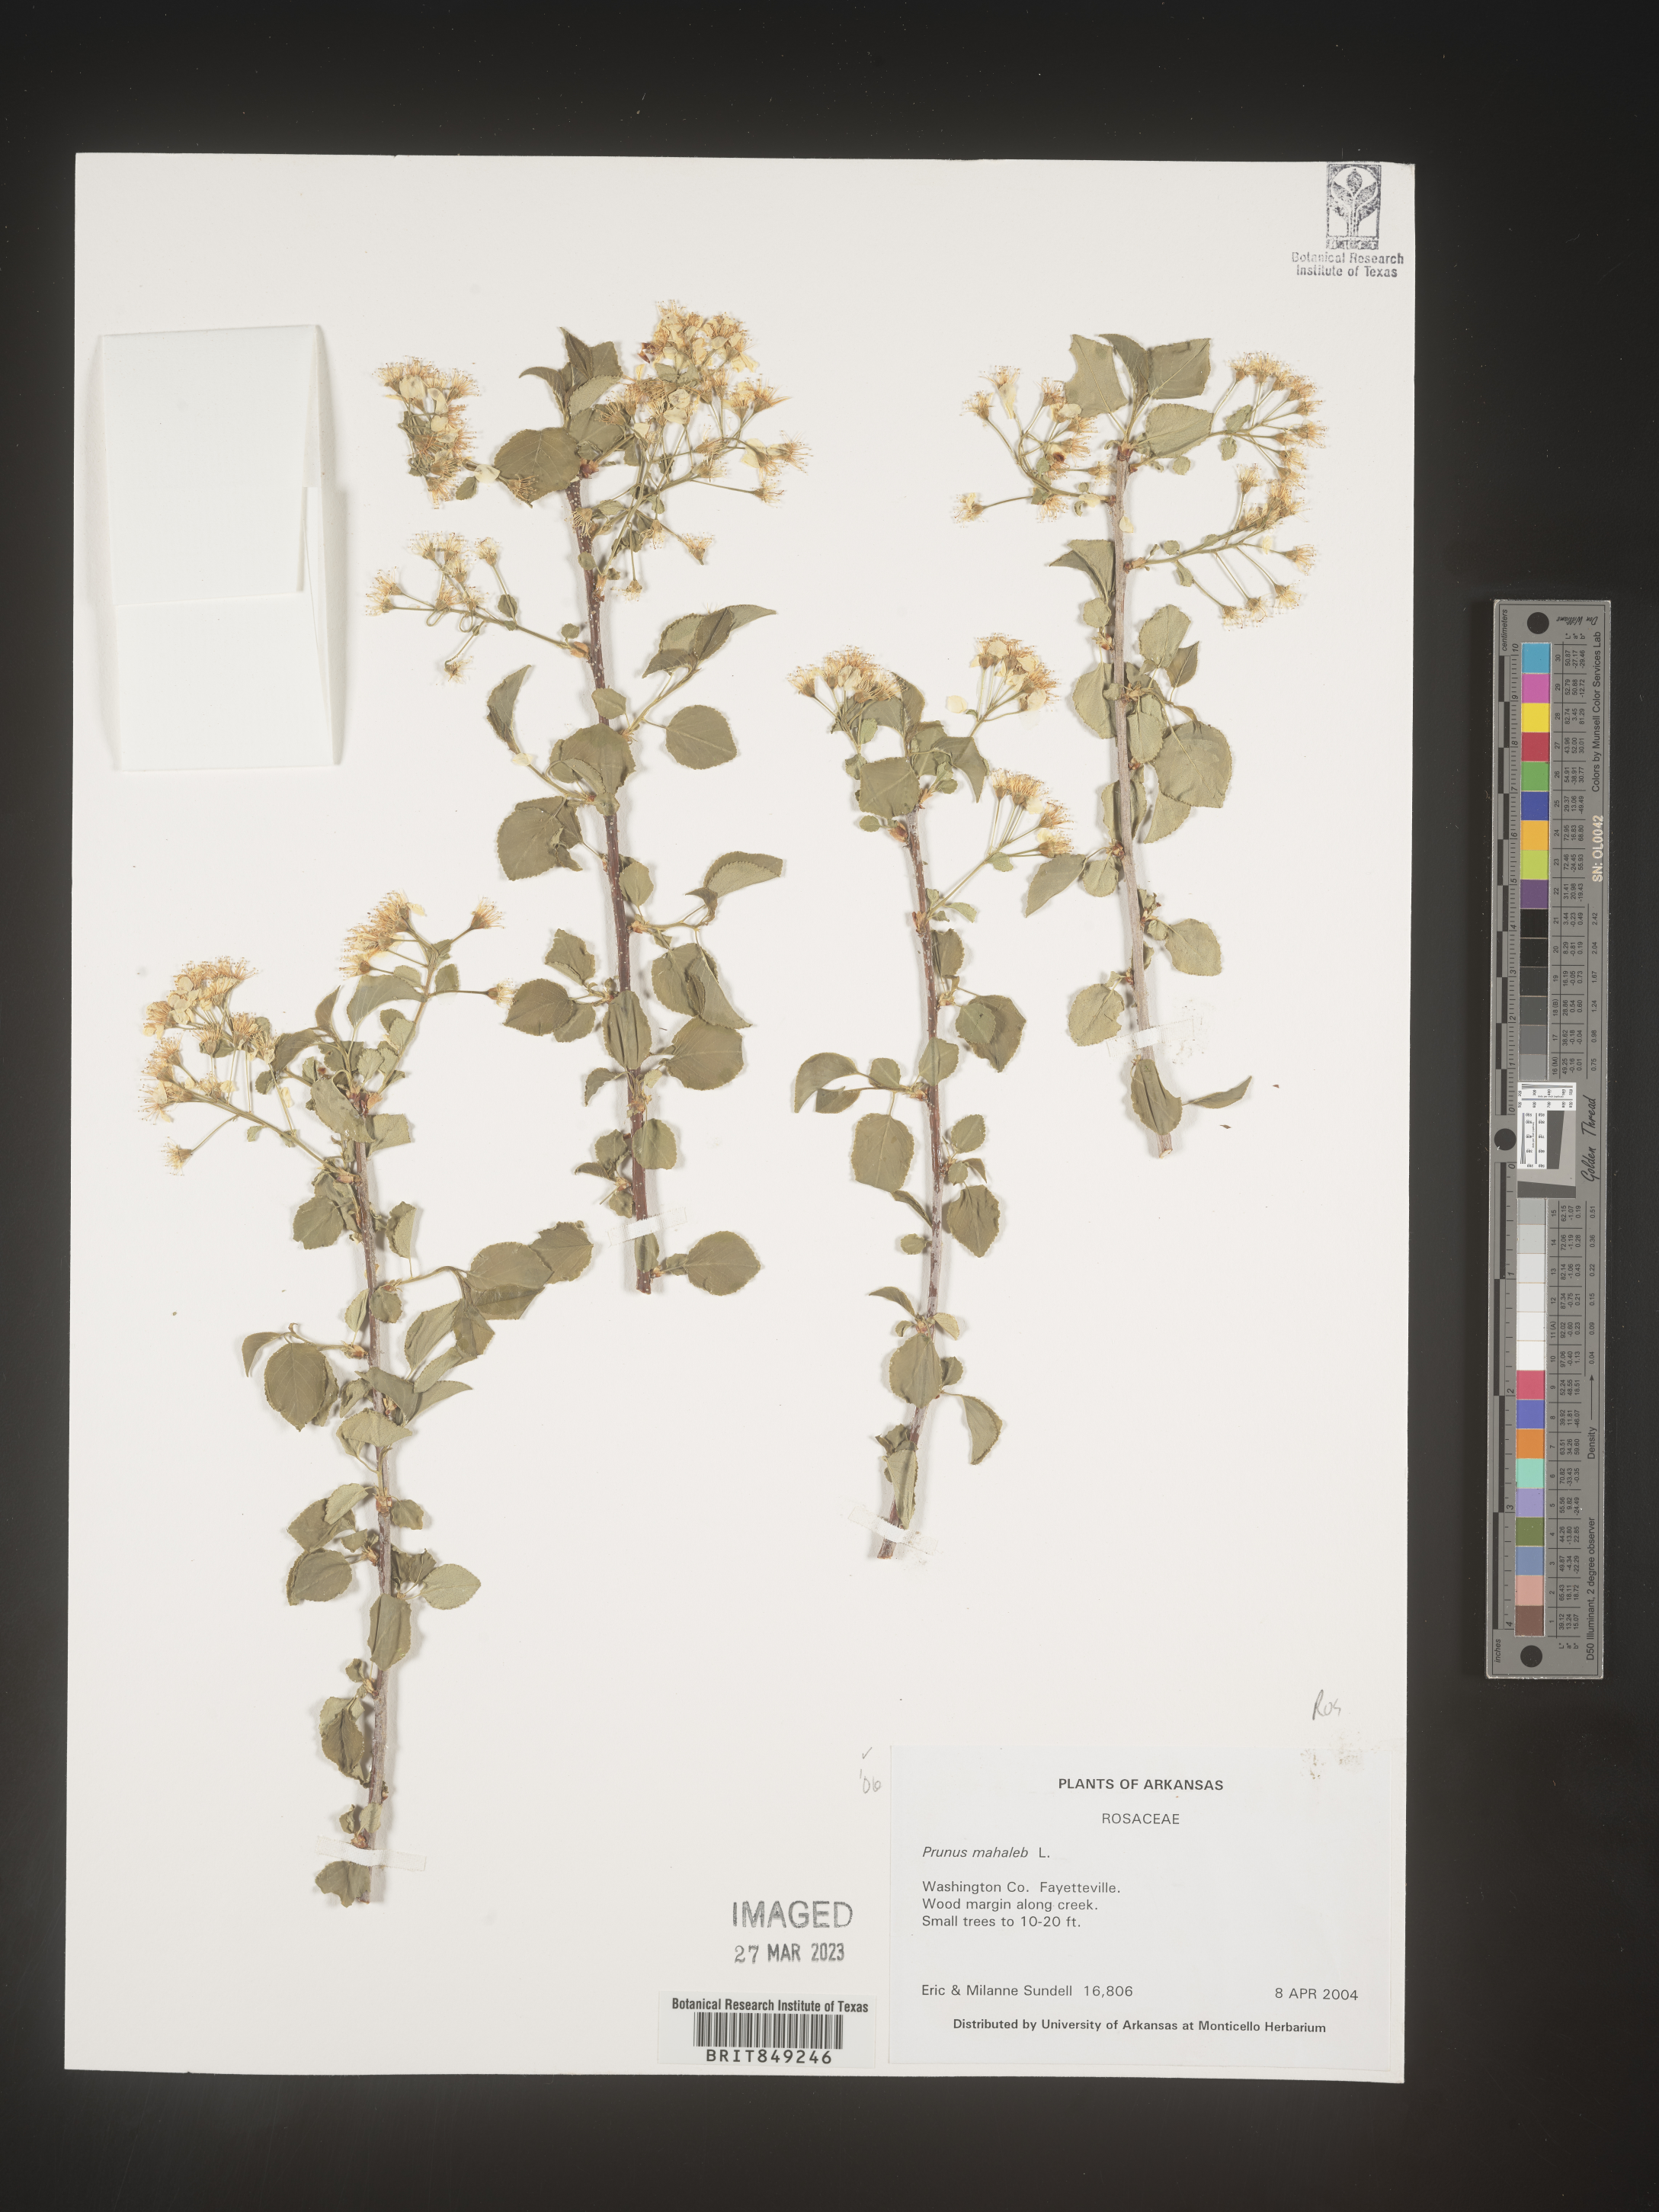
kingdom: Plantae
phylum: Tracheophyta
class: Magnoliopsida
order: Rosales
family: Rosaceae
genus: Prunus
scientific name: Prunus
